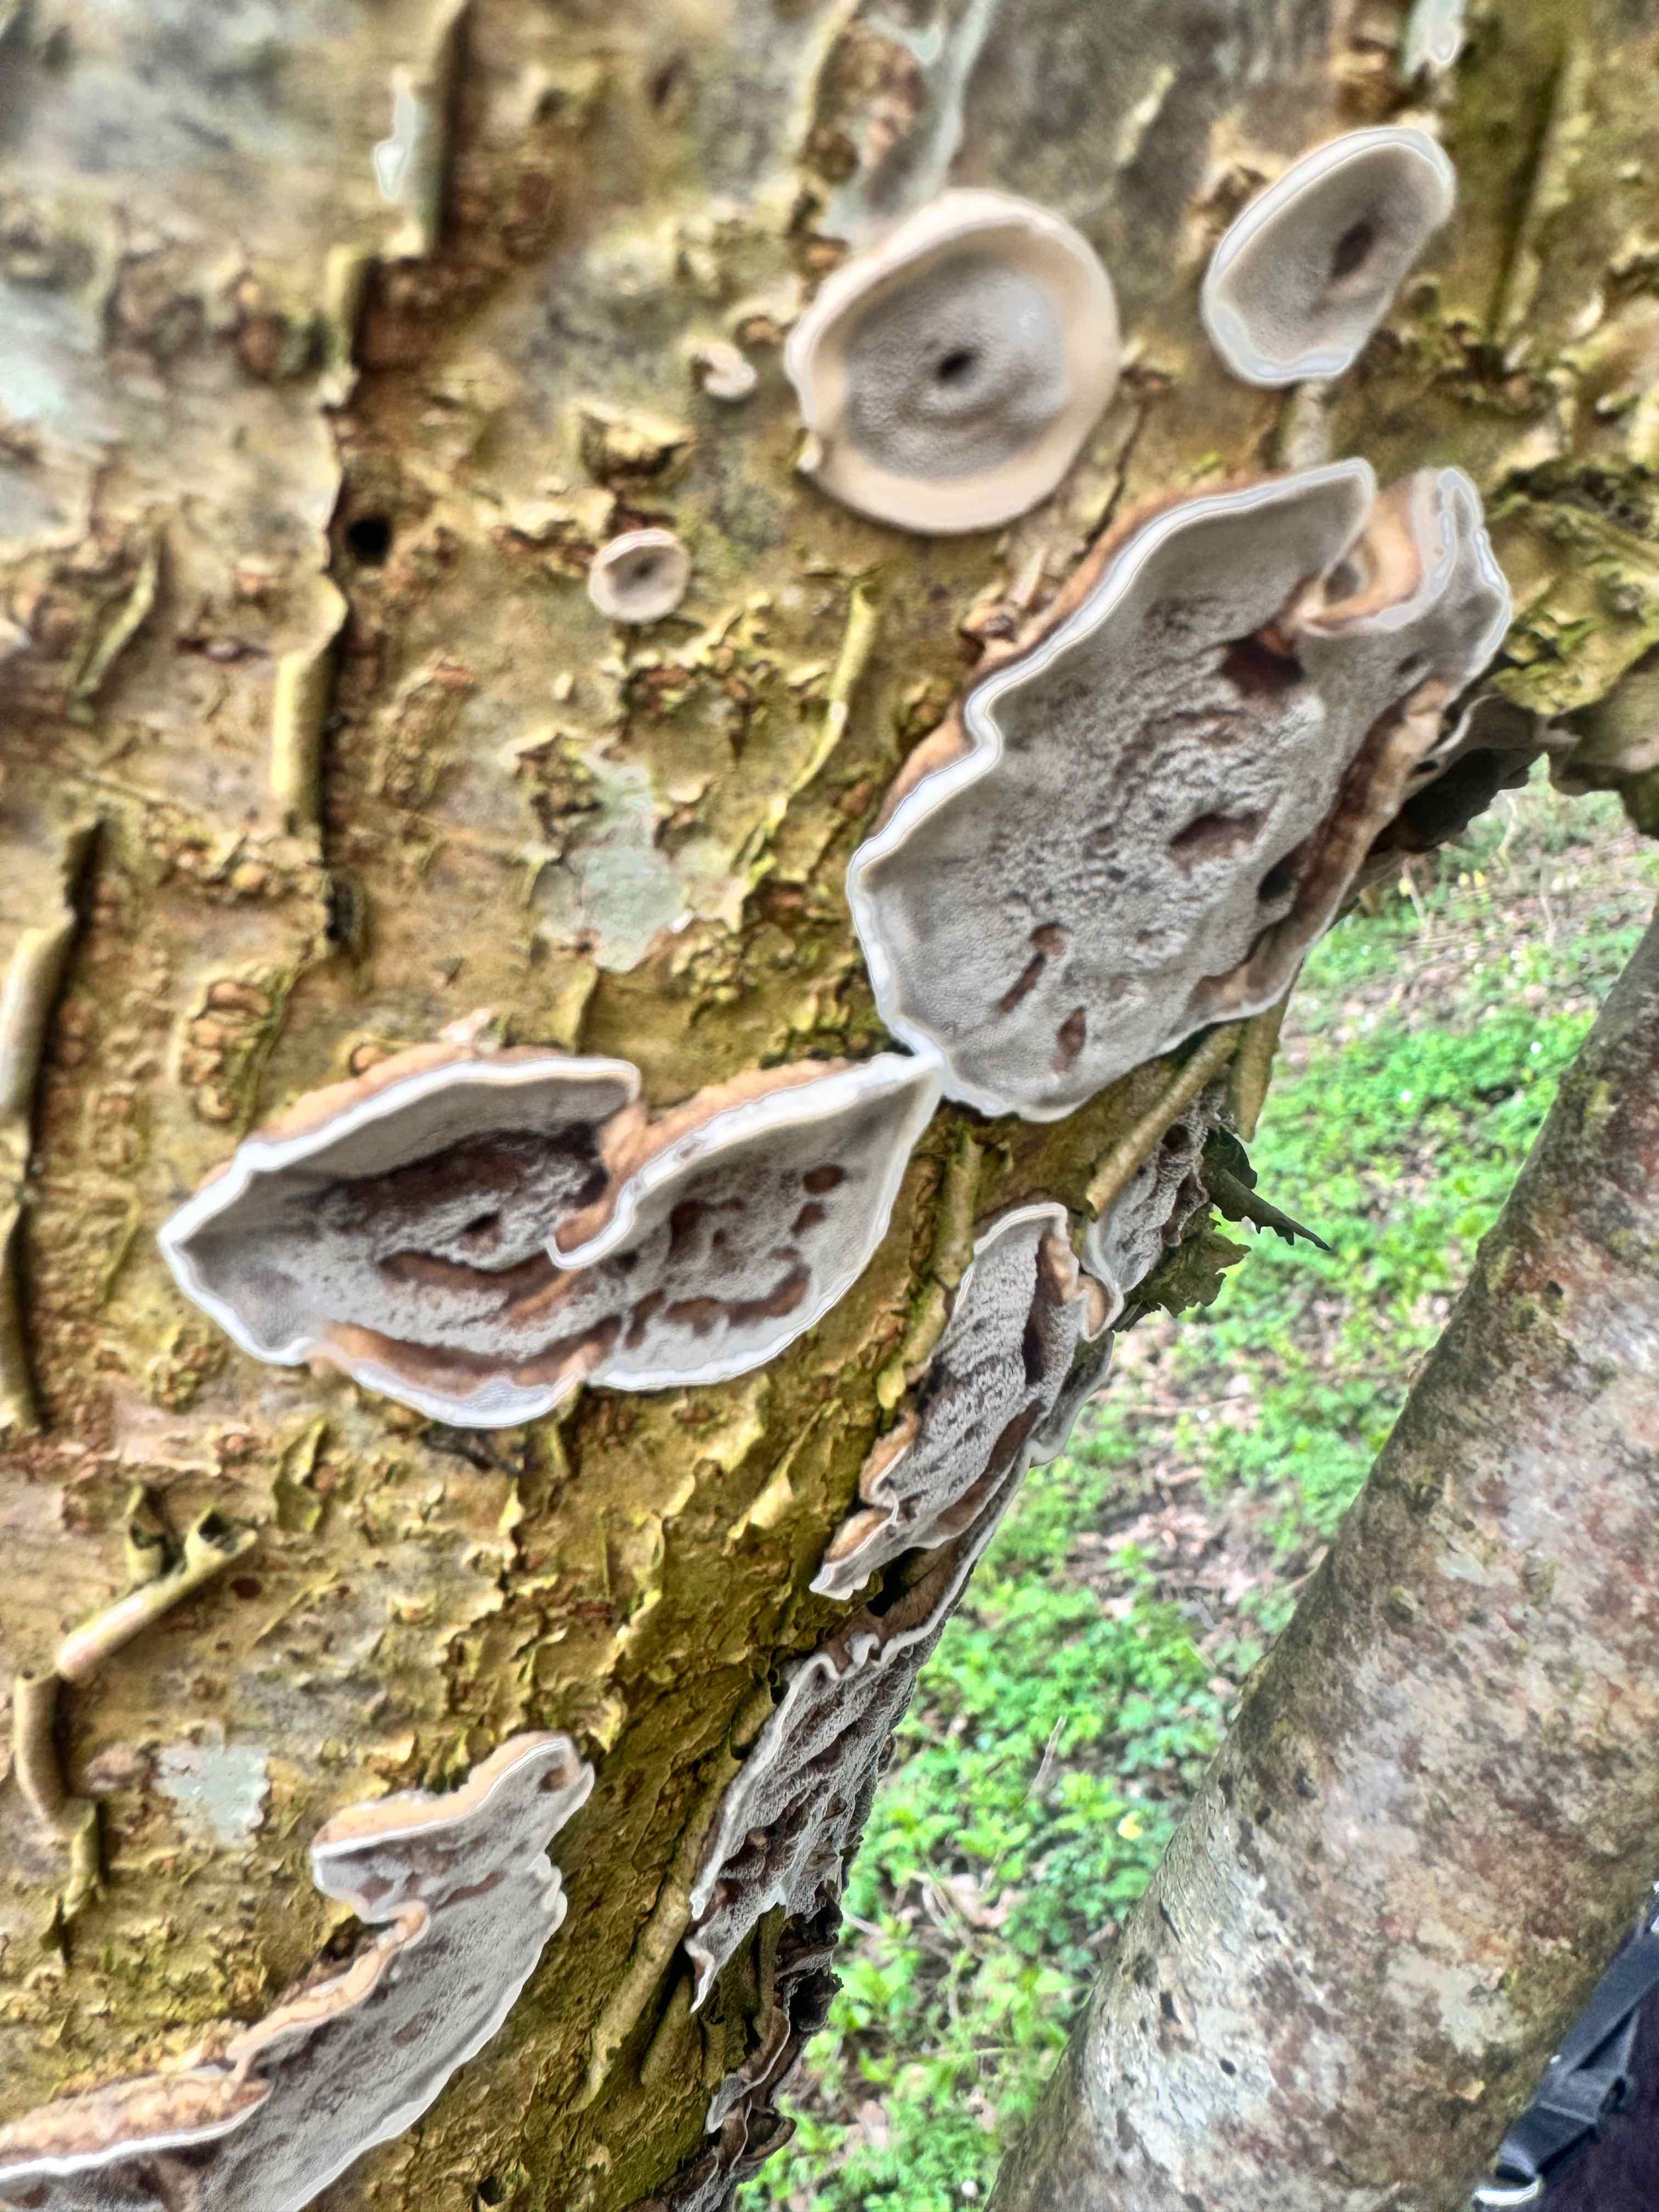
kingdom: Fungi
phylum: Basidiomycota
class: Agaricomycetes
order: Polyporales
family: Phanerochaetaceae
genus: Bjerkandera
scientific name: Bjerkandera adusta
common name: sveden sodporesvamp
